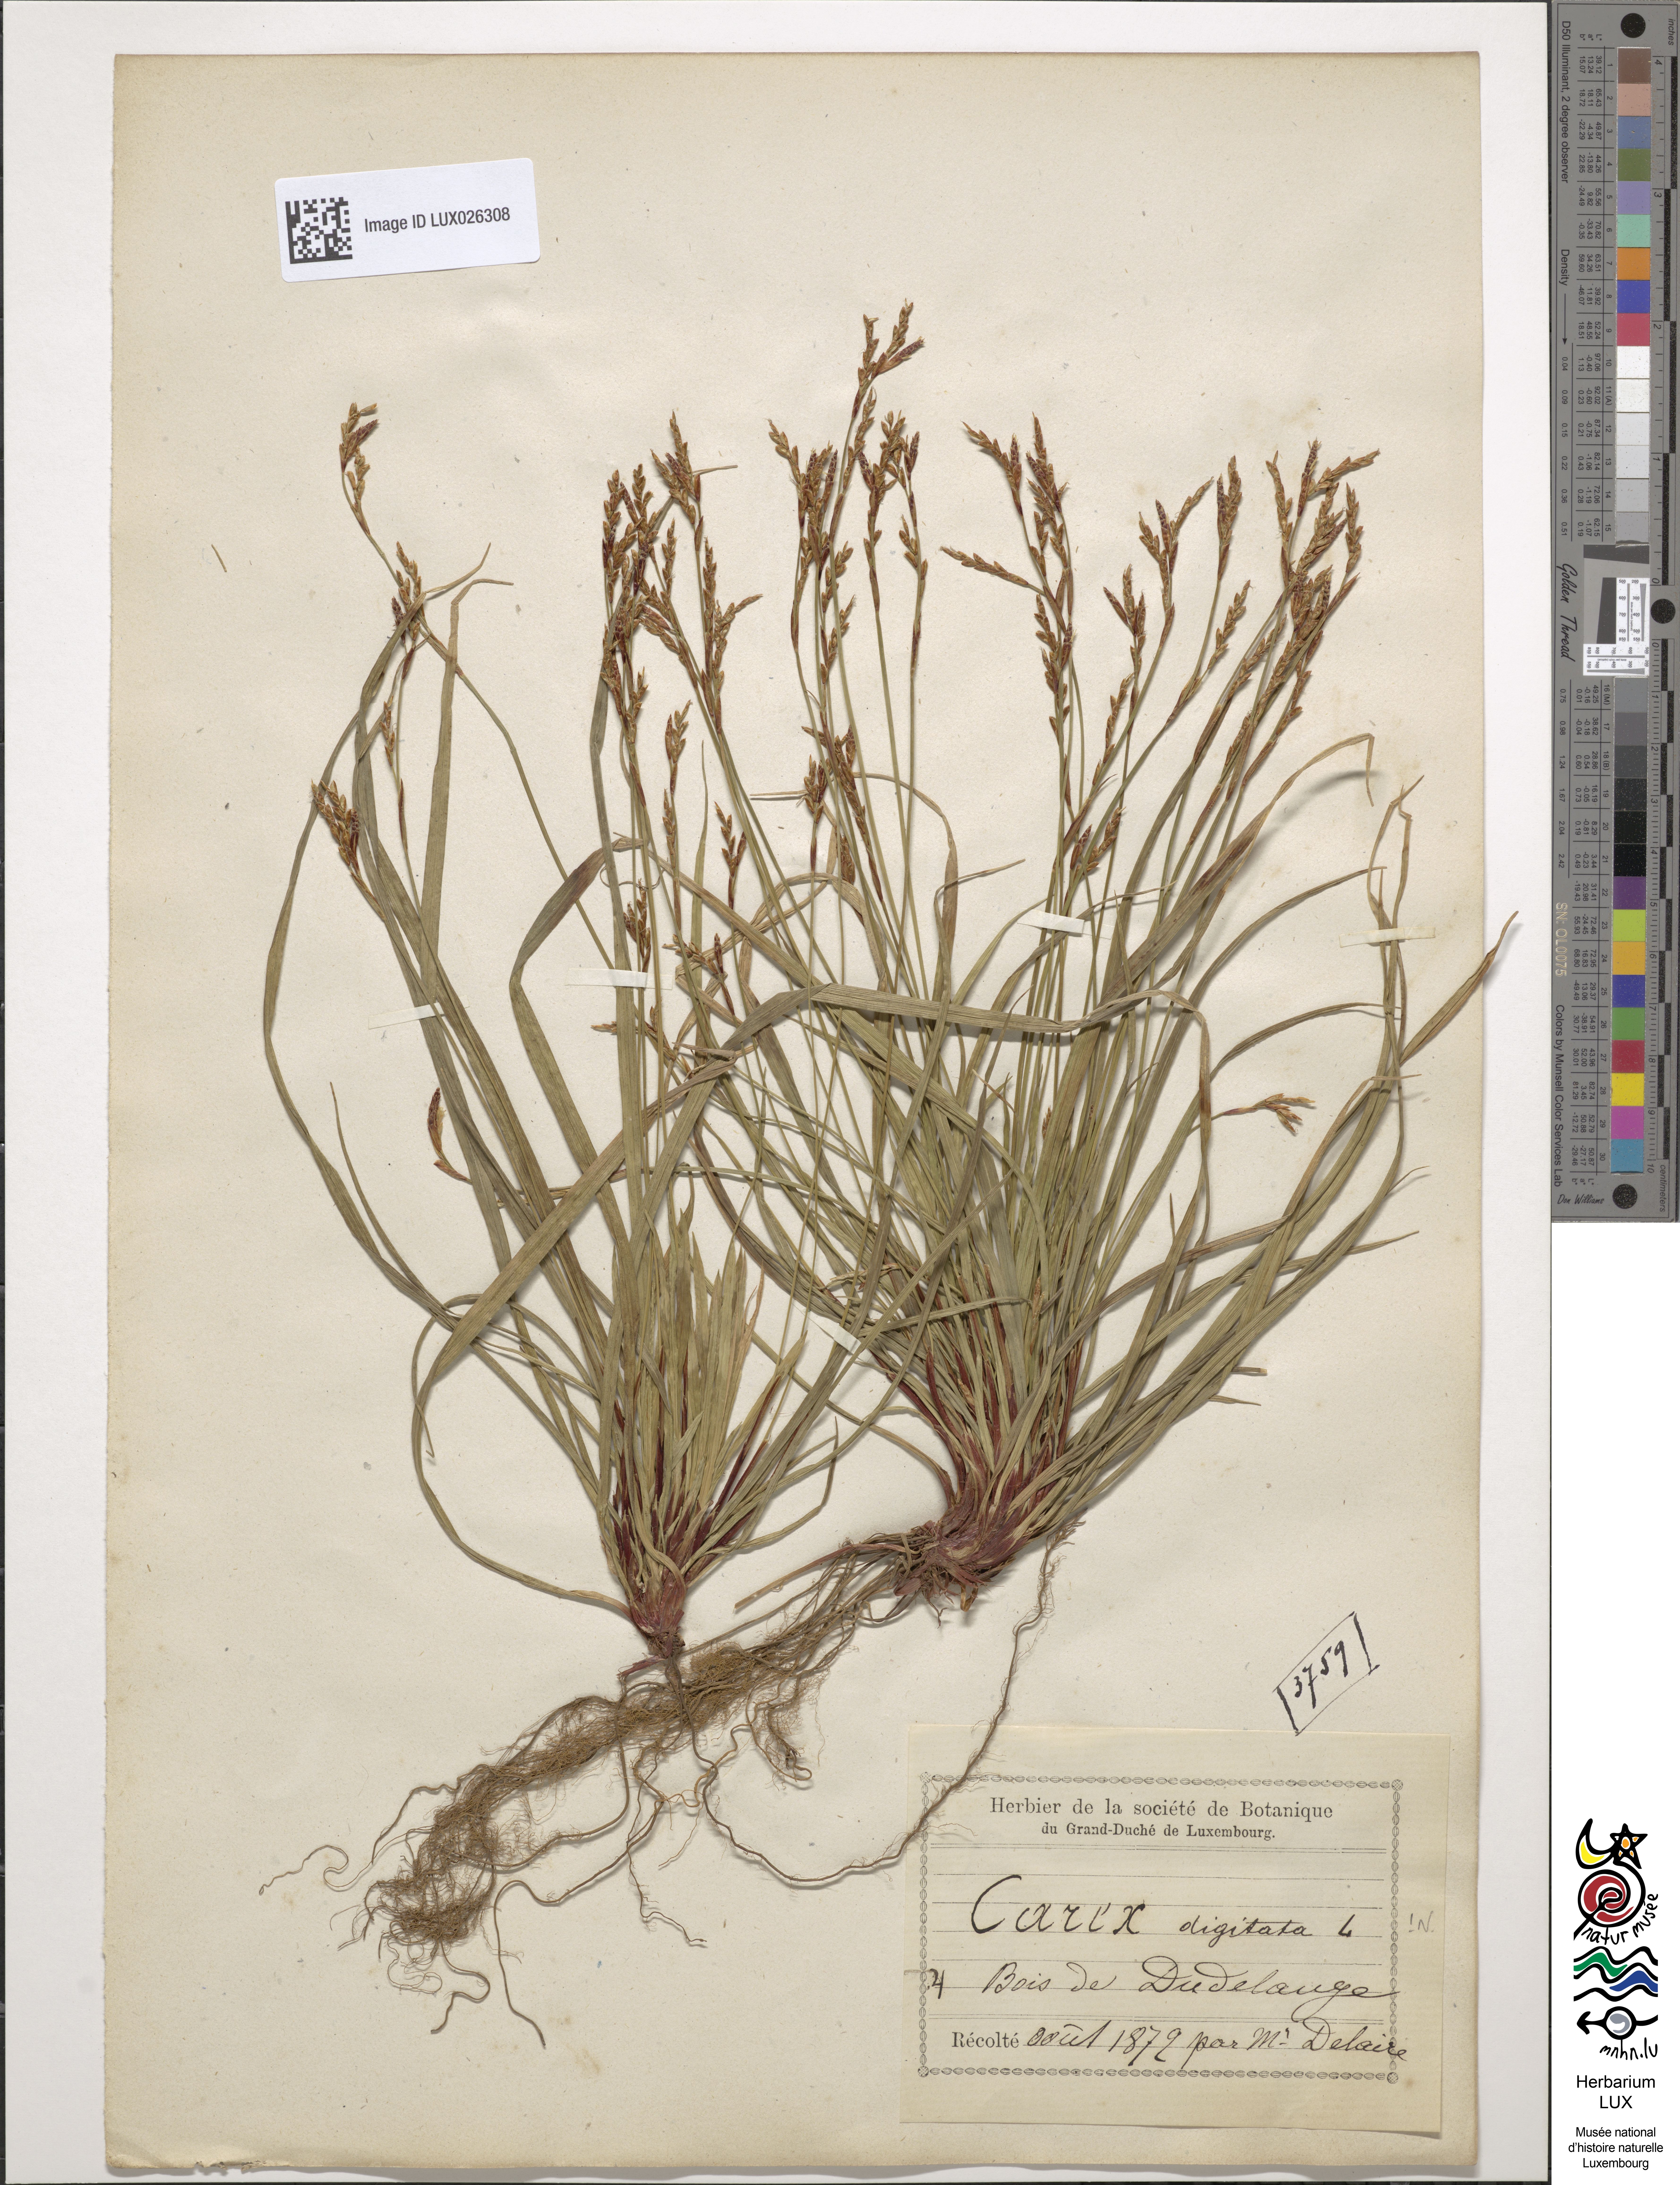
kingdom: Plantae
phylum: Tracheophyta
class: Liliopsida
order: Poales
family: Cyperaceae
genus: Carex
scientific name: Carex digitata
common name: Fingered sedge
